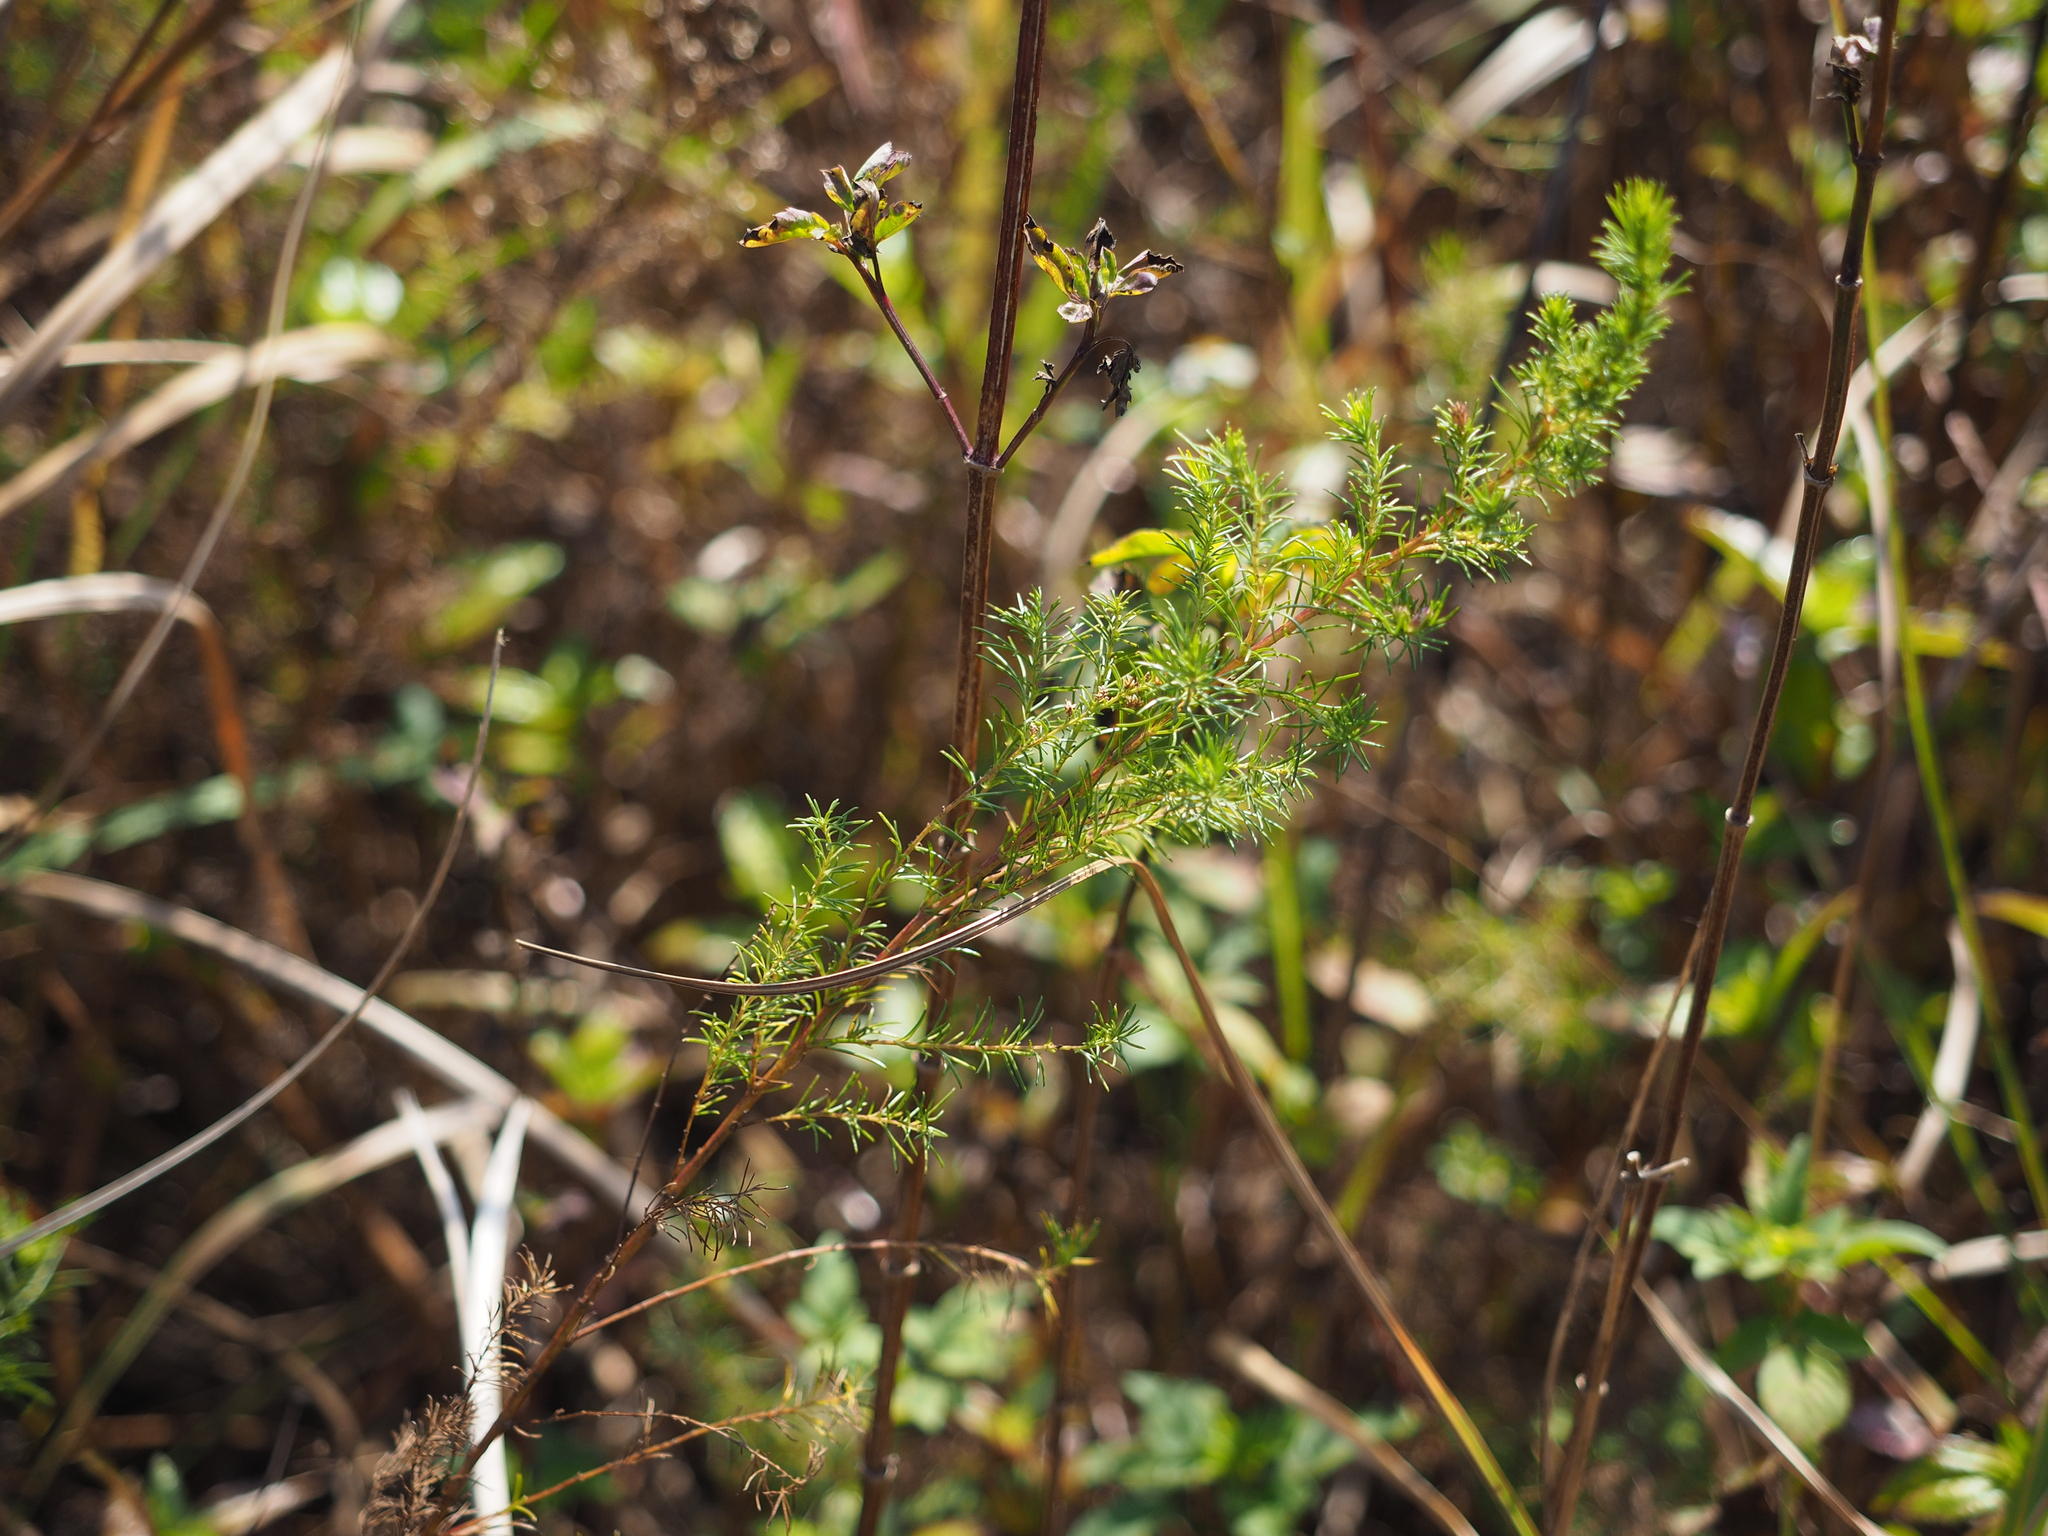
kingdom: Plantae
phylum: Tracheophyta
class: Magnoliopsida
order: Asterales
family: Asteraceae
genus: Artemisia
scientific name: Artemisia capillaris
